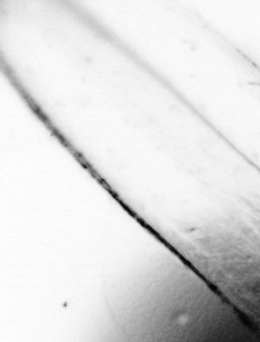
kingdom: Animalia
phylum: Chordata
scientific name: Chordata
